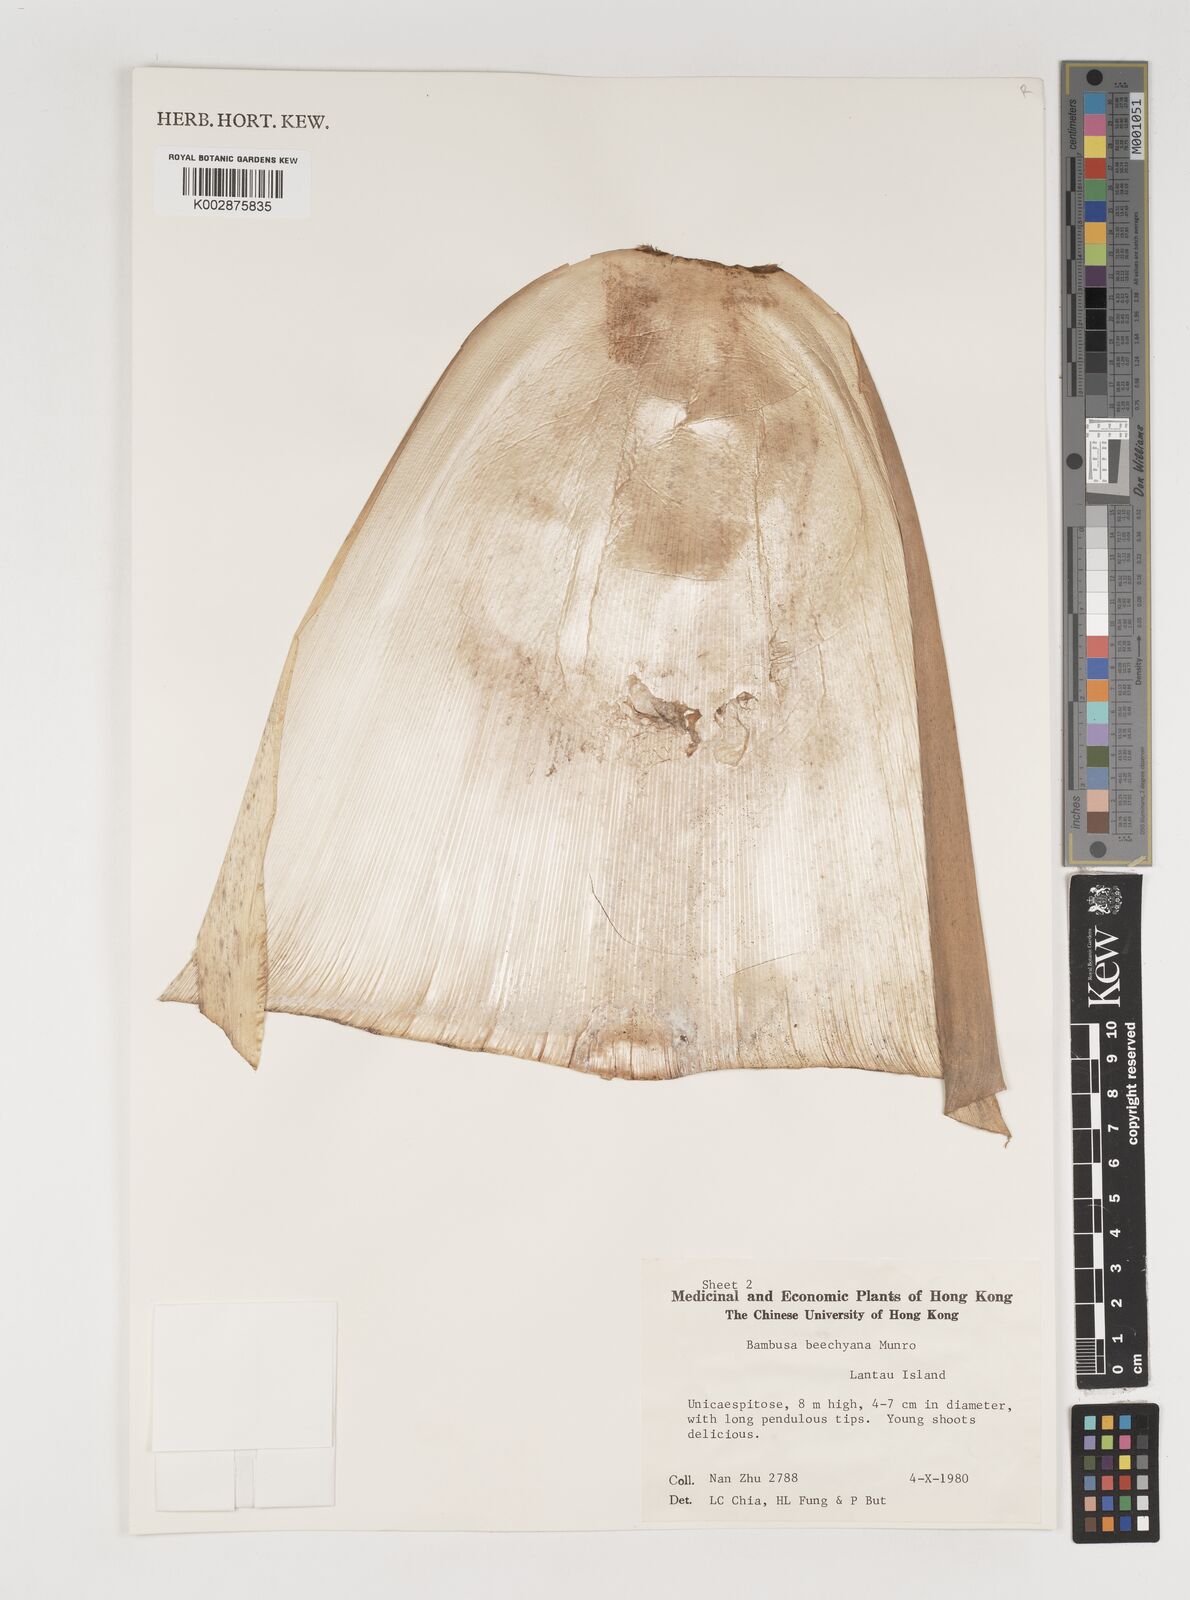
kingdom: Plantae
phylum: Tracheophyta
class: Liliopsida
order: Poales
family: Poaceae
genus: Bambusa
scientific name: Bambusa beecheyana
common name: Beechey's bamboo
